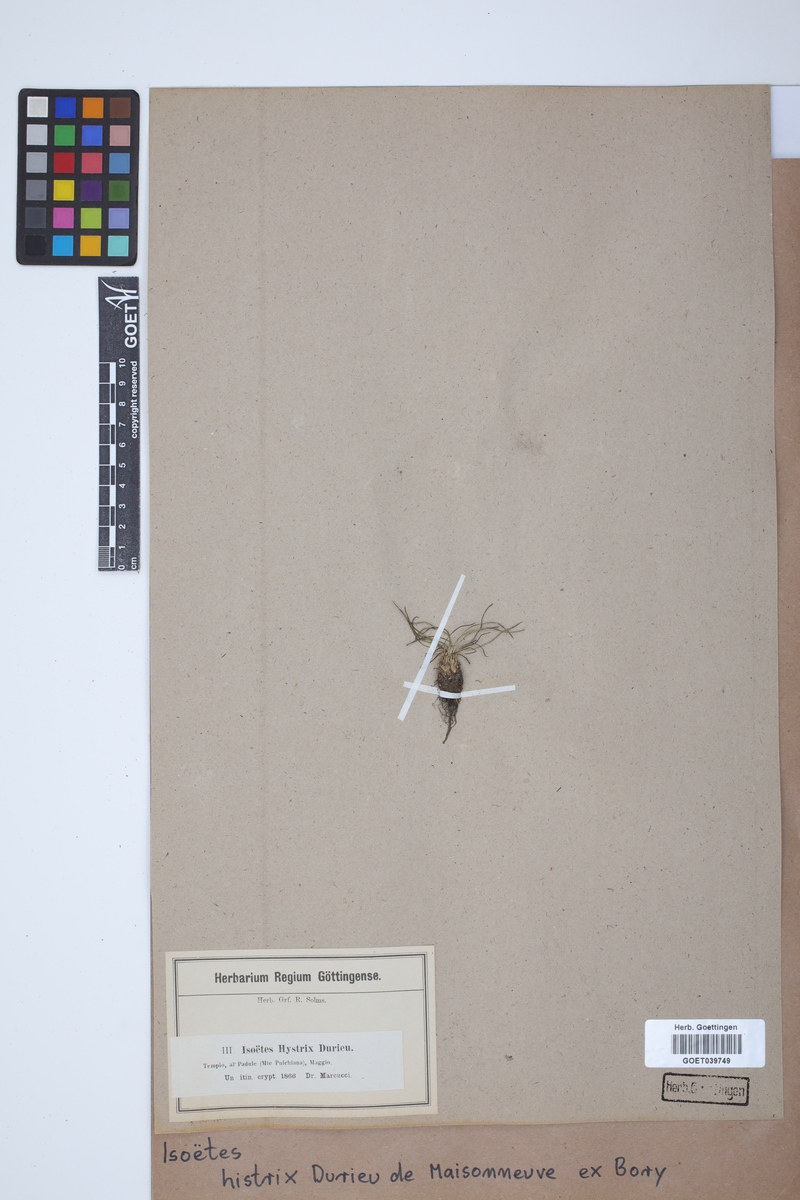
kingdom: Plantae
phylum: Tracheophyta
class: Lycopodiopsida
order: Isoetales
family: Isoetaceae
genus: Isoetes
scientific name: Isoetes histrix
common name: Land quillwort
